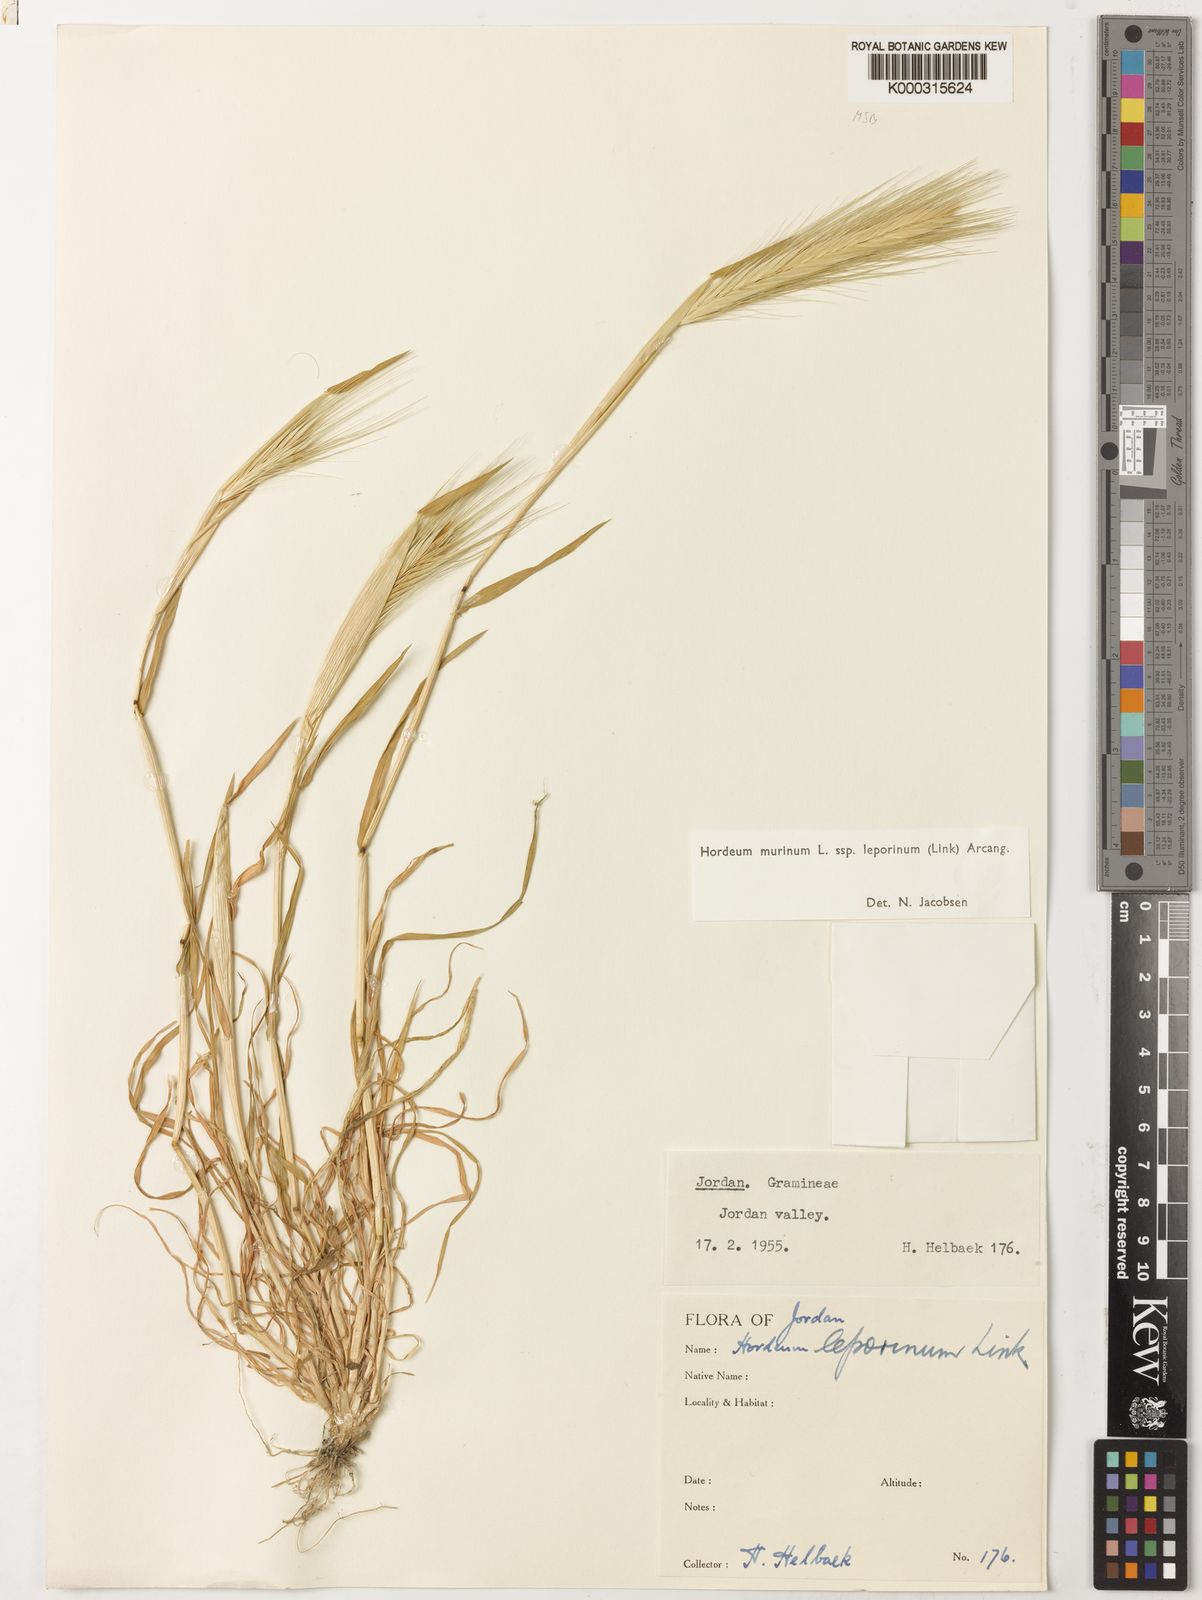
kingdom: Plantae
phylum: Tracheophyta
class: Liliopsida
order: Poales
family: Poaceae
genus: Hordeum
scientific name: Hordeum murinum
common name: Wall barley
